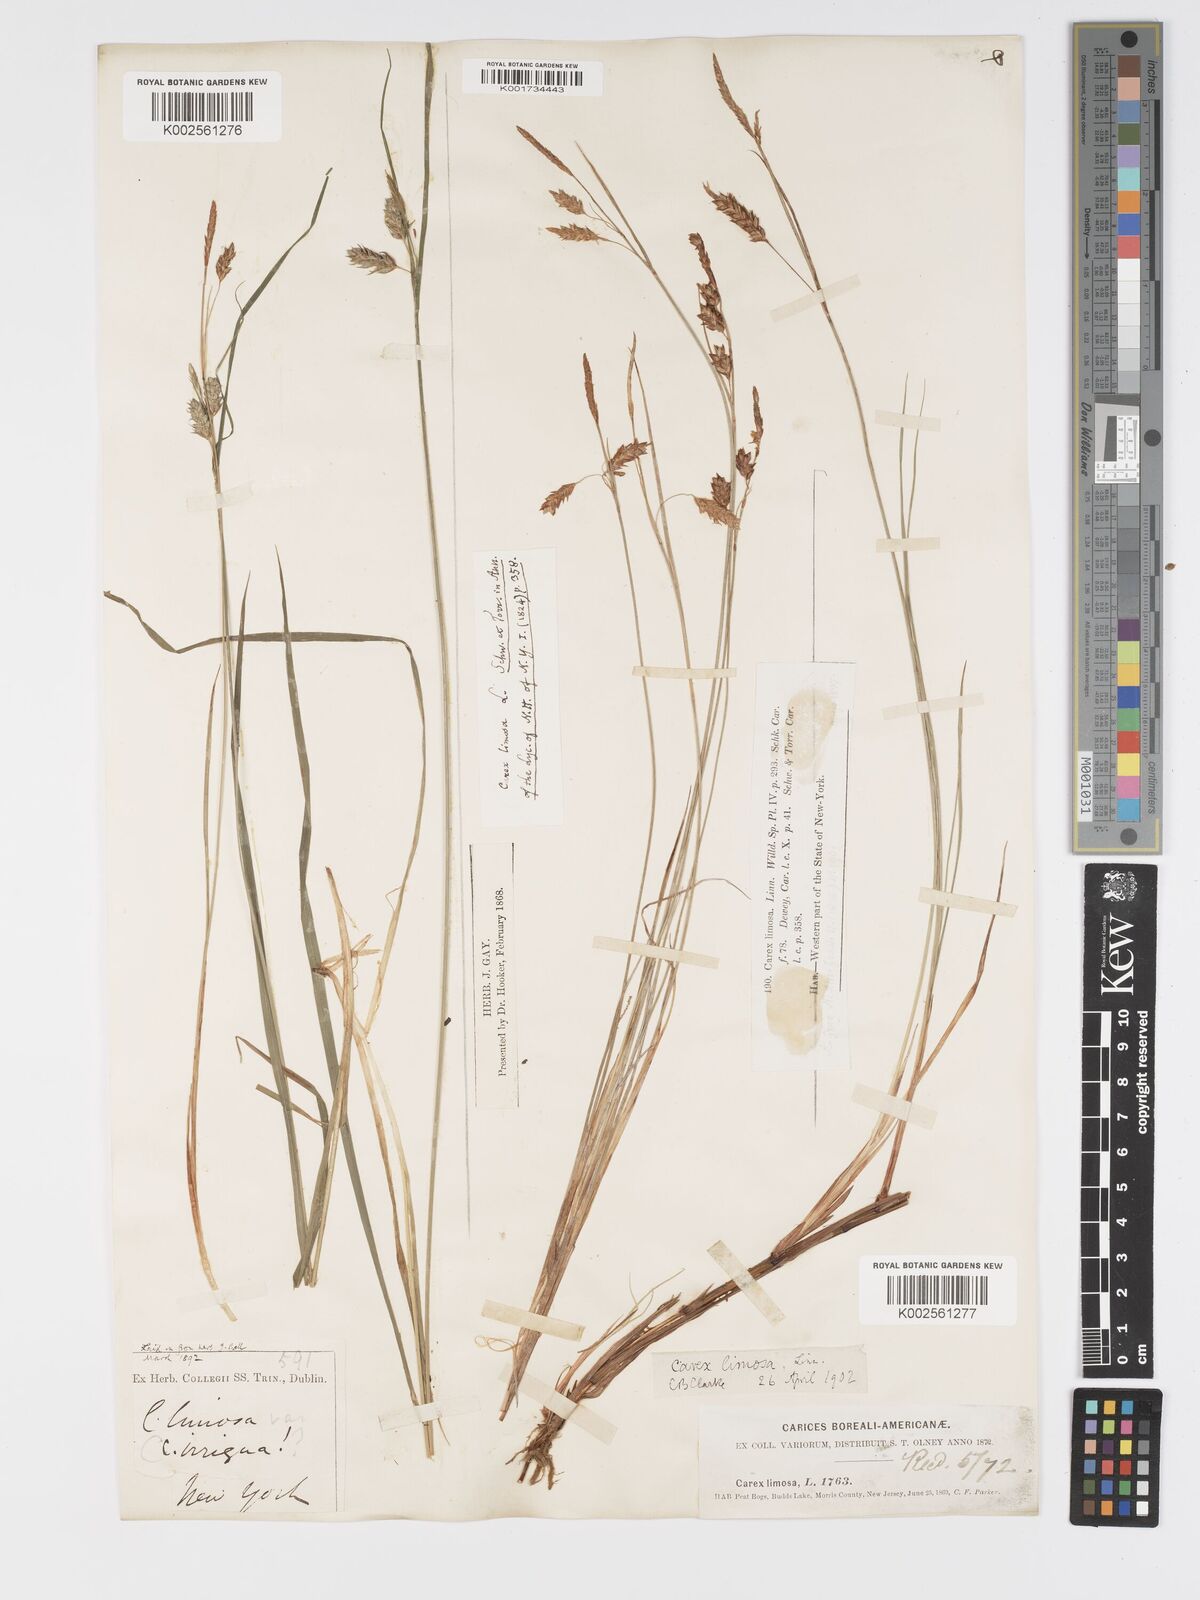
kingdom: Plantae
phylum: Tracheophyta
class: Liliopsida
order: Poales
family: Cyperaceae
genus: Carex
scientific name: Carex limosa
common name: Bog sedge
